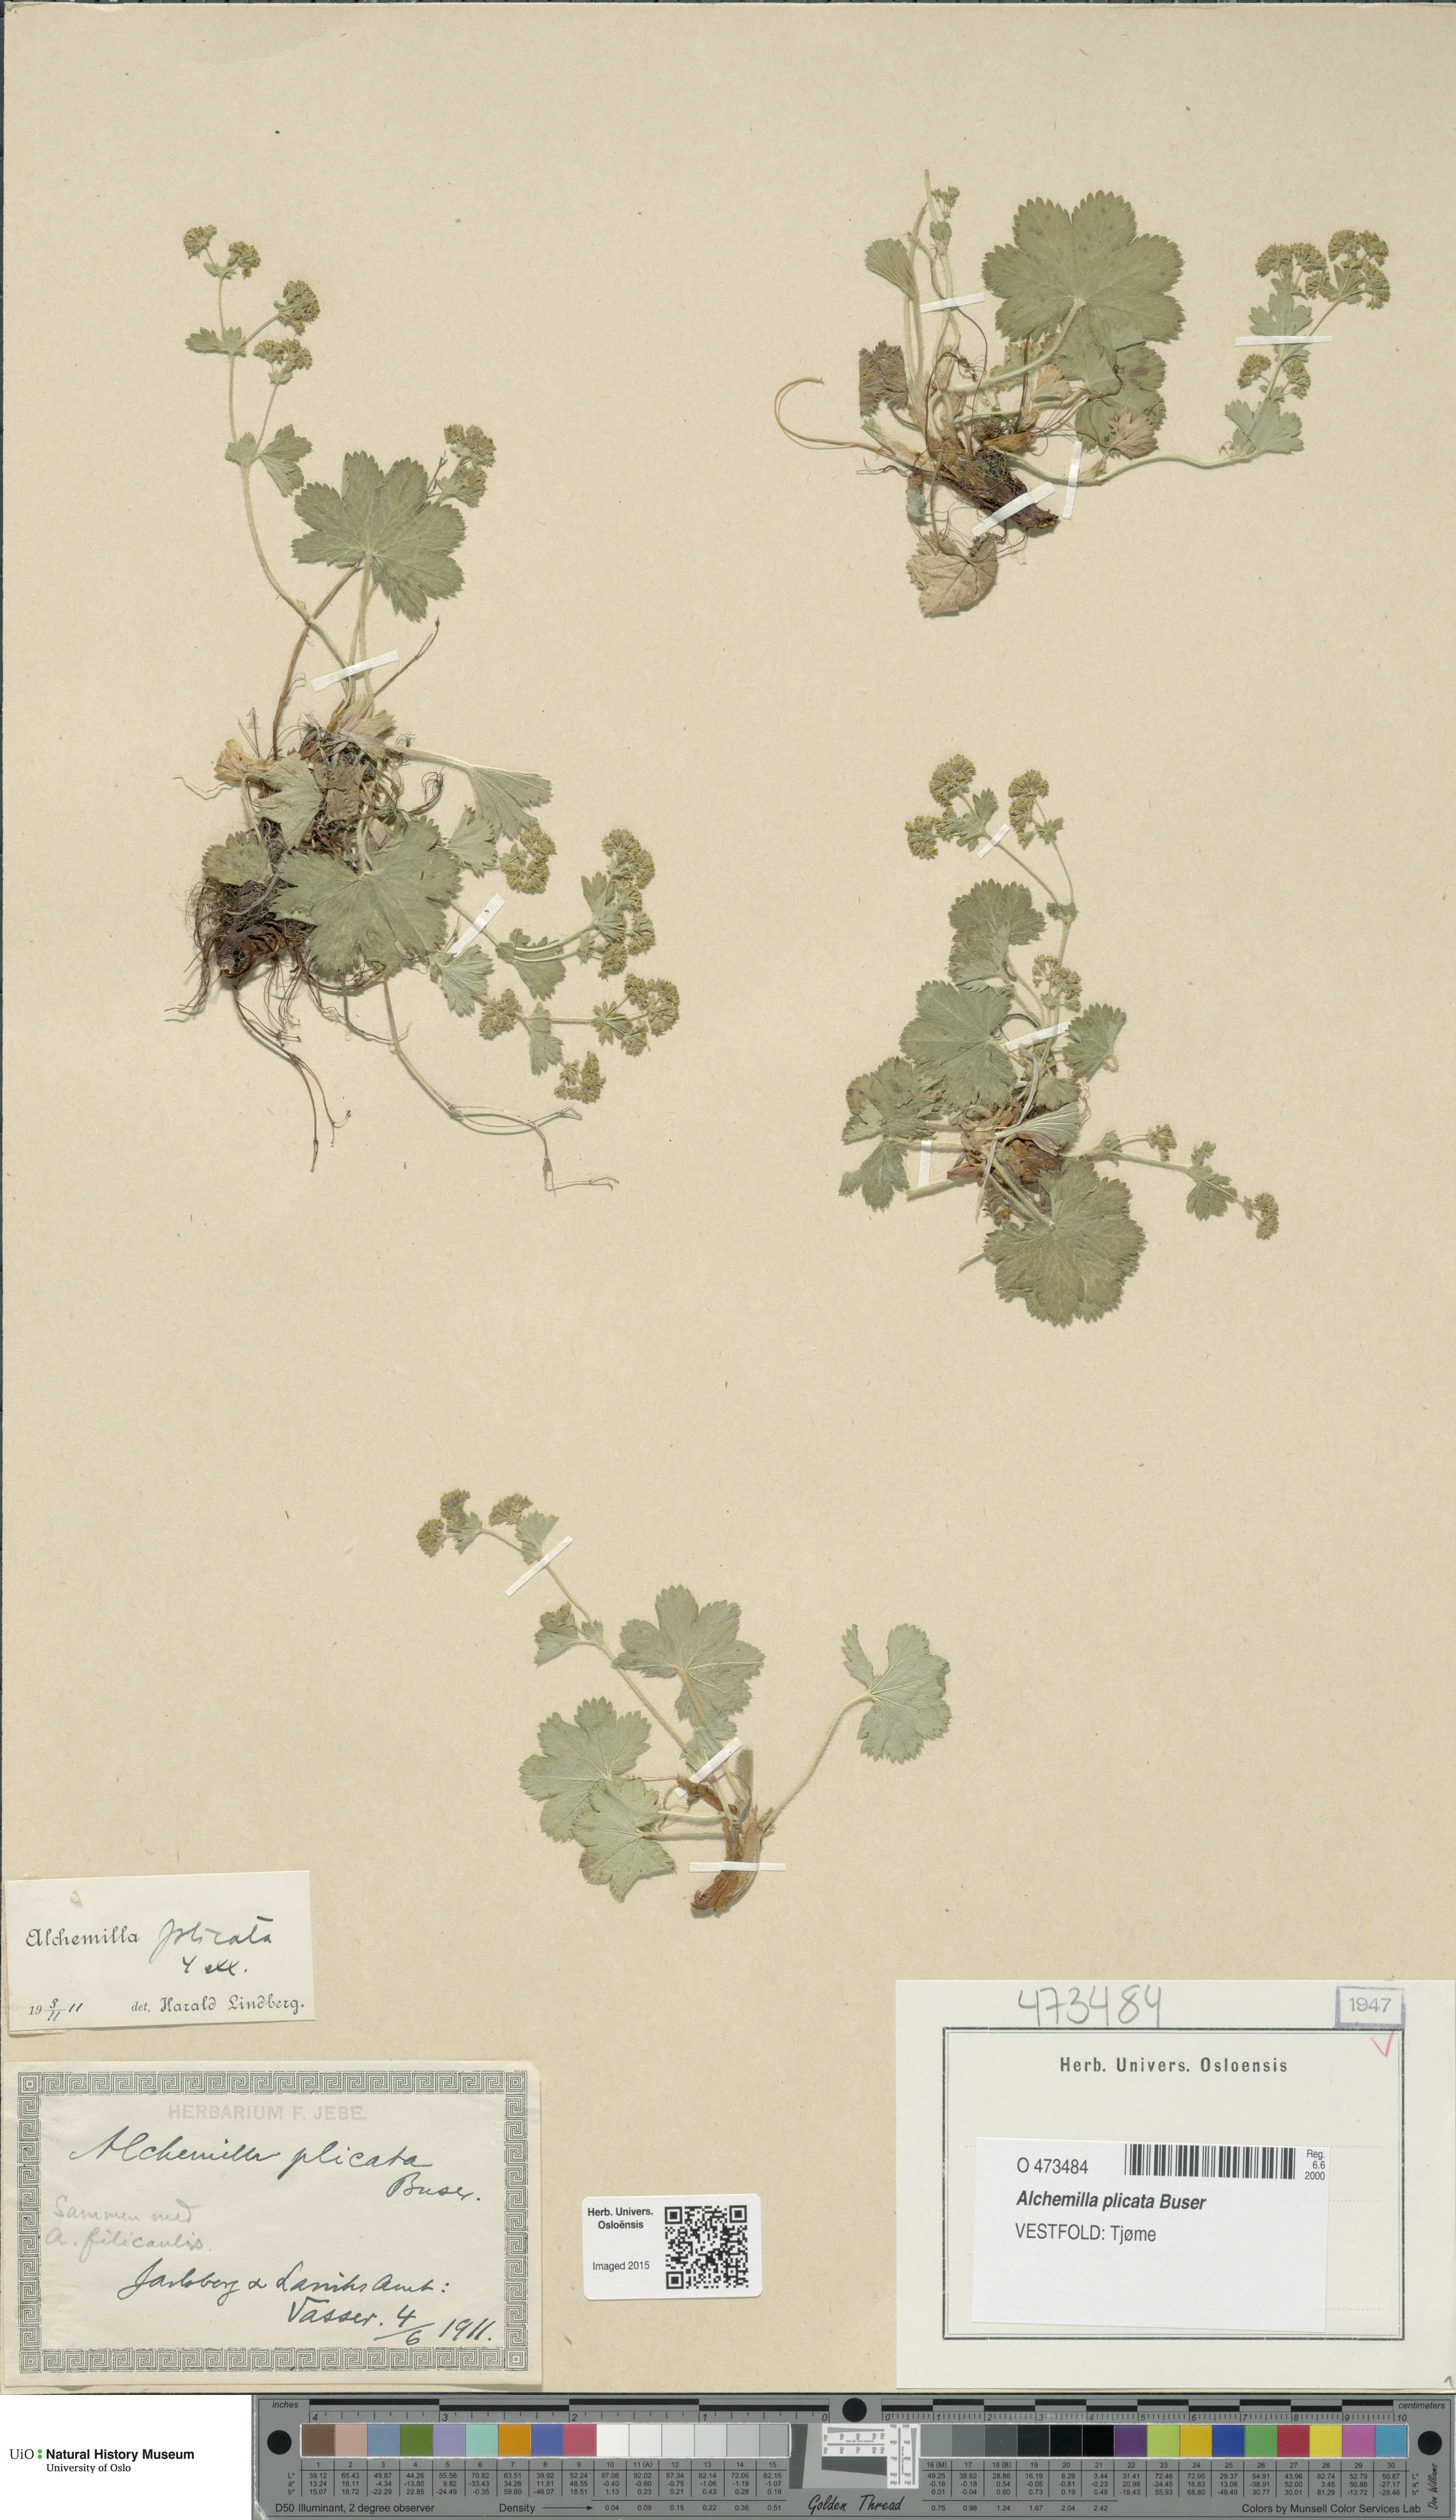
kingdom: Plantae
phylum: Tracheophyta
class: Magnoliopsida
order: Rosales
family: Rosaceae
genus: Alchemilla
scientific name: Alchemilla plicata
